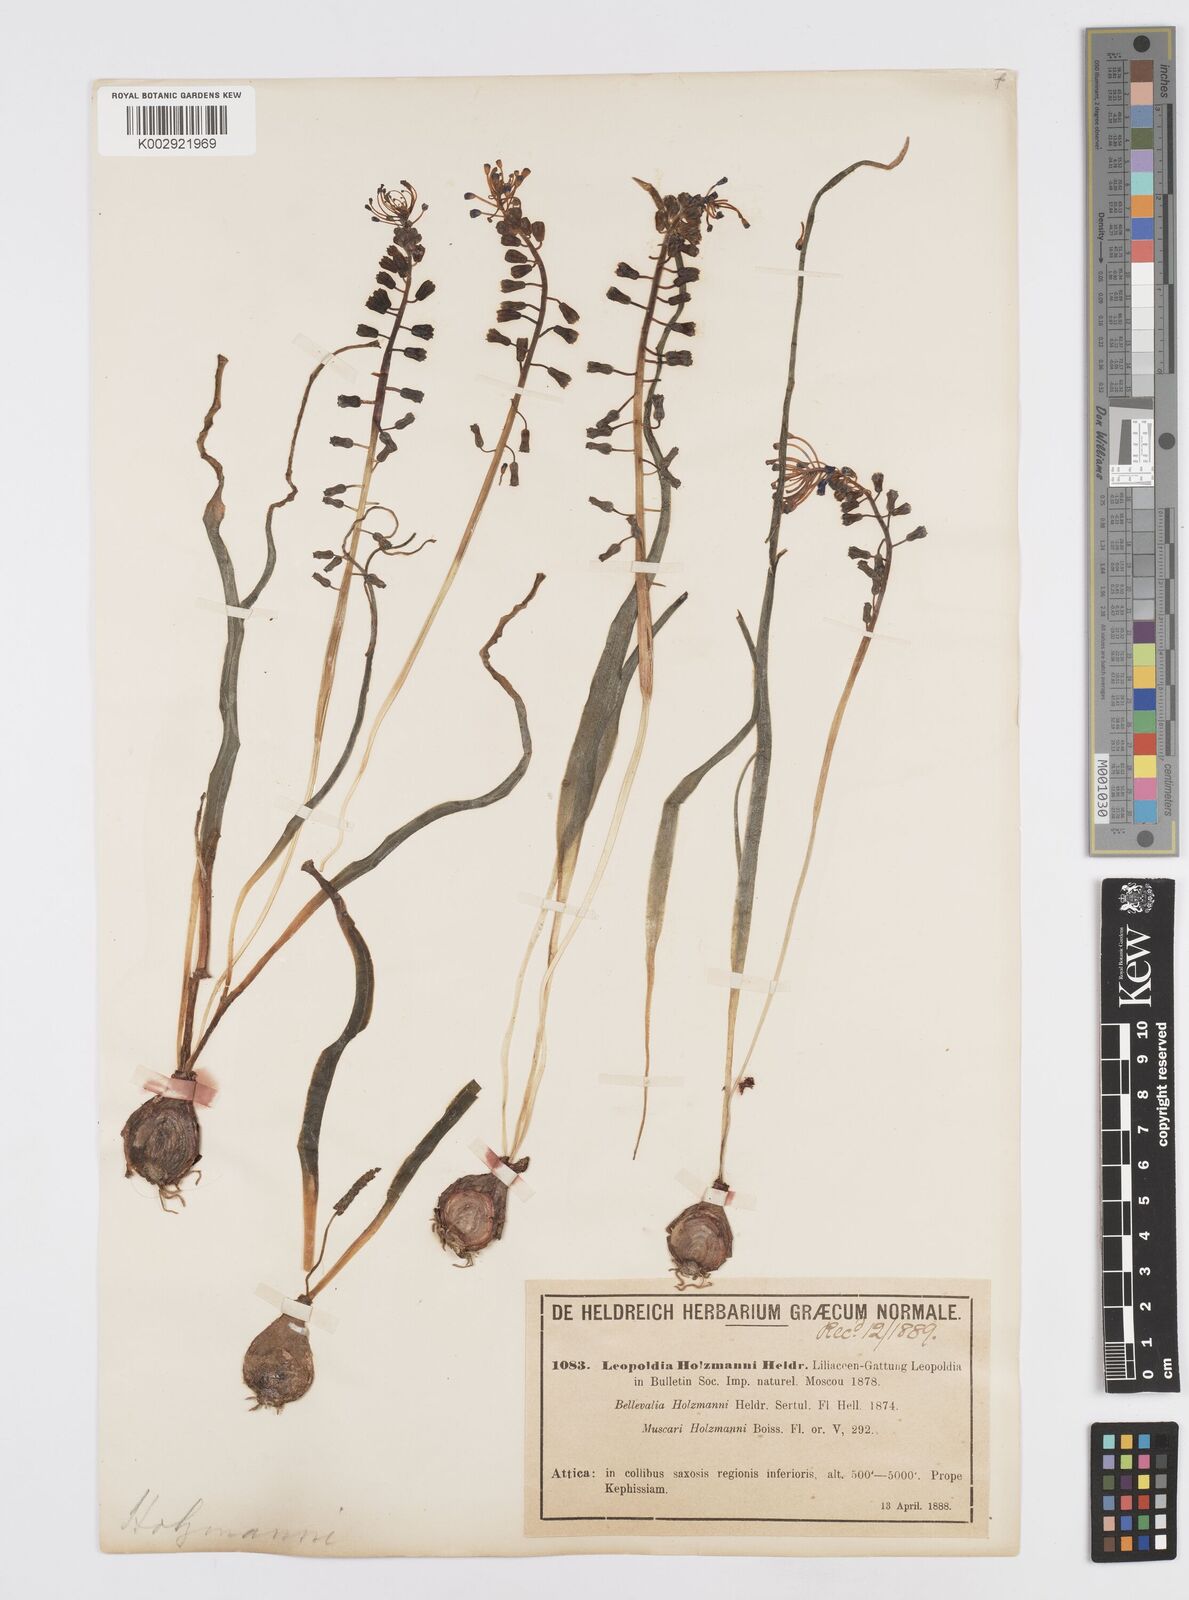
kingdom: Plantae
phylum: Tracheophyta
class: Liliopsida
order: Asparagales
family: Asparagaceae
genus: Muscari
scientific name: Muscari comosum
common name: Tassel hyacinth
